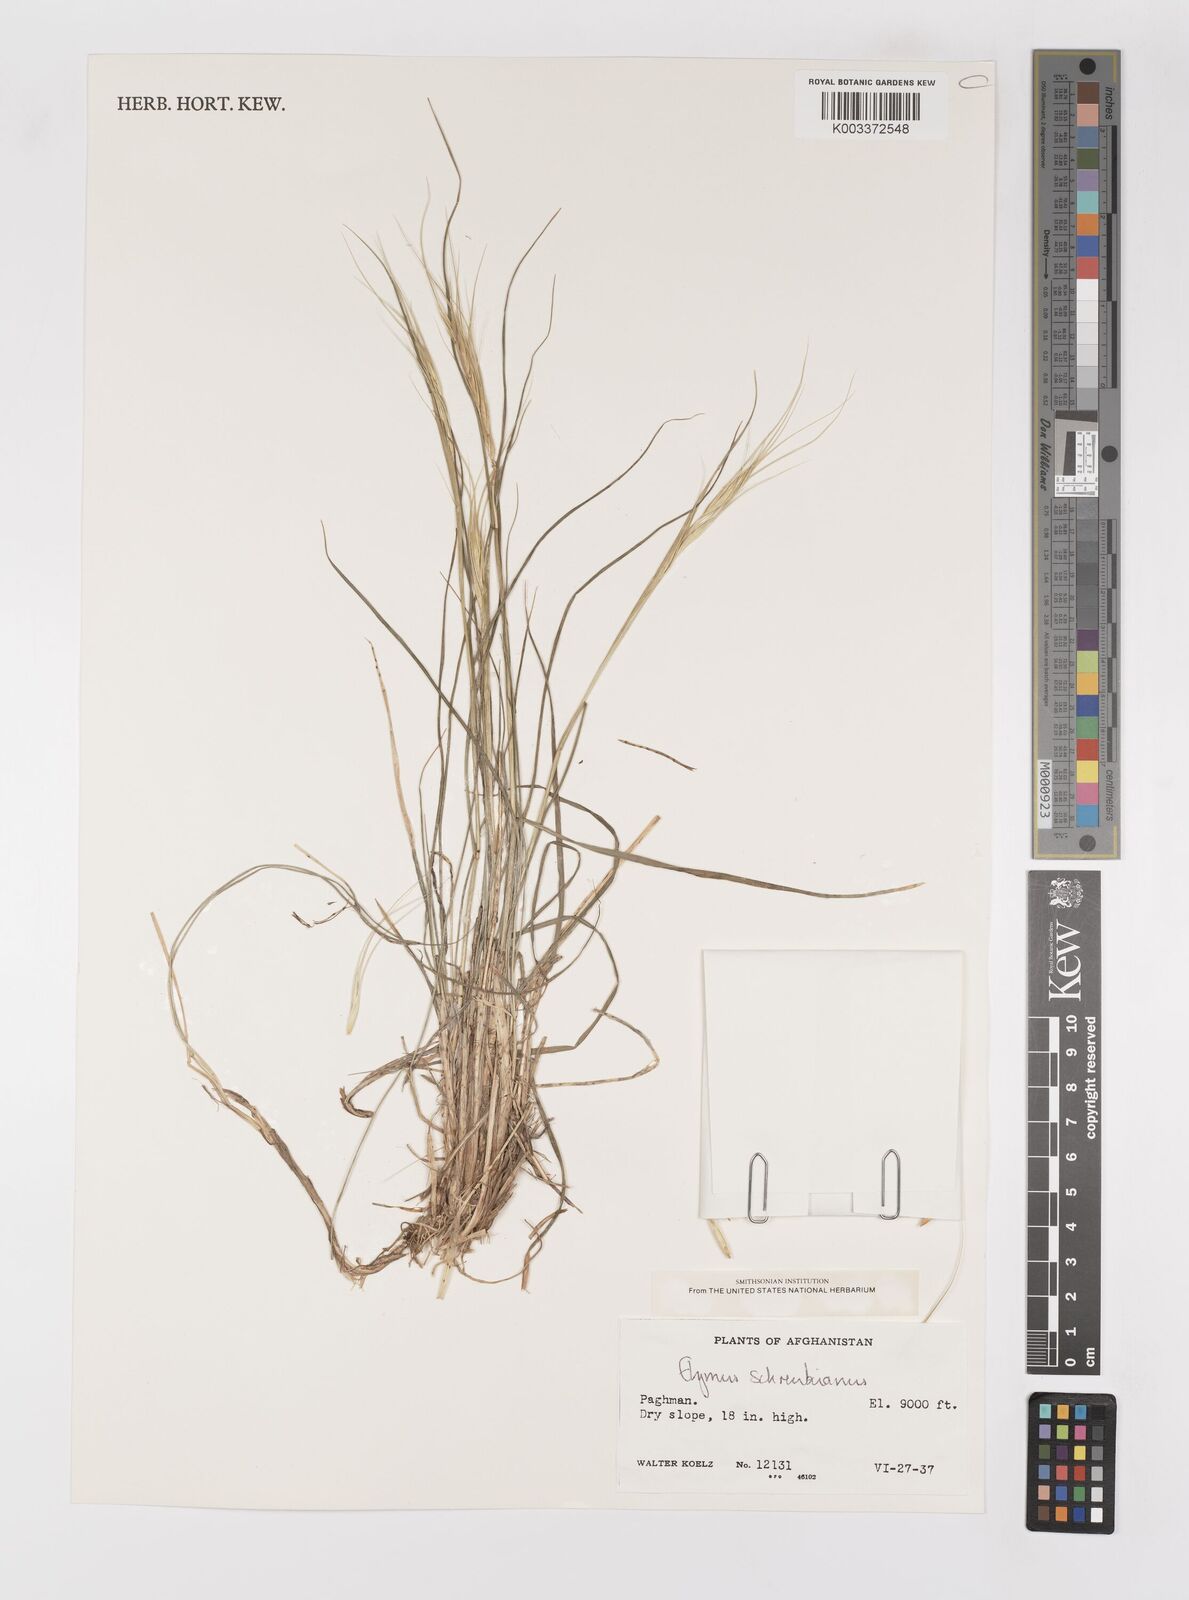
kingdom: Plantae
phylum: Tracheophyta
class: Liliopsida
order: Poales
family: Poaceae
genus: Campeiostachys
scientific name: Campeiostachys schrenkiana
